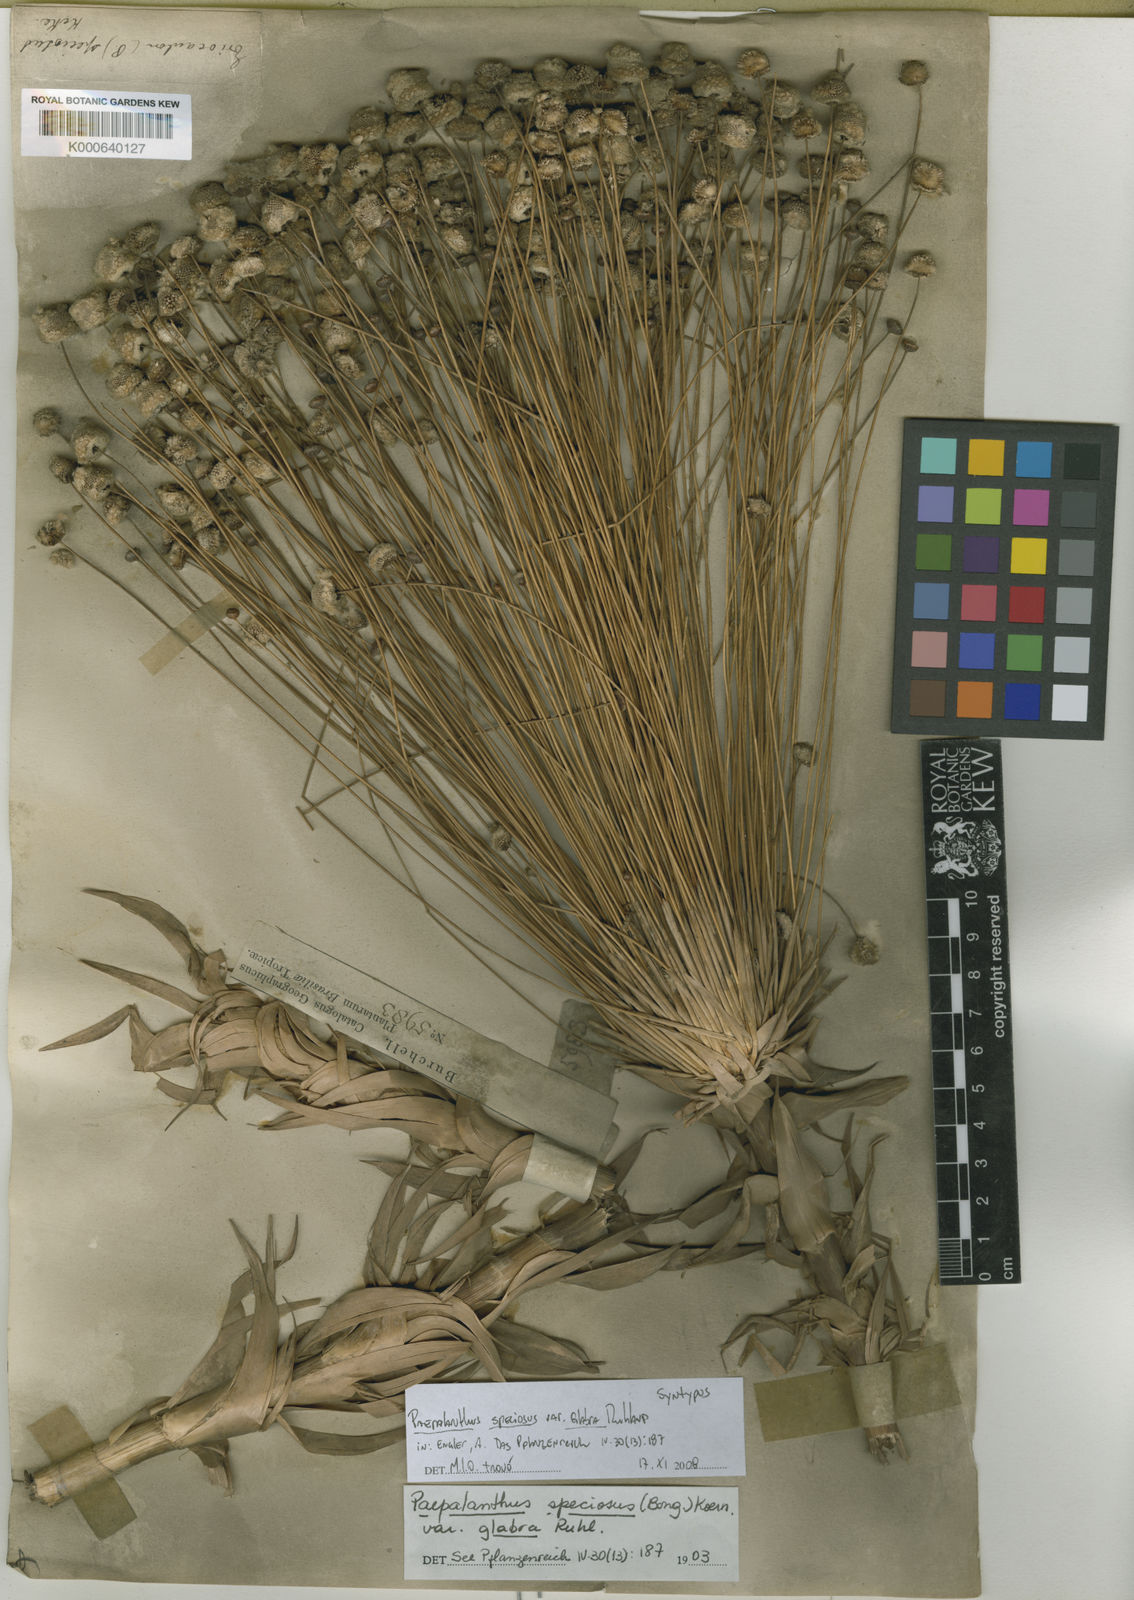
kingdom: Plantae
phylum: Tracheophyta
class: Liliopsida
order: Poales
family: Eriocaulaceae
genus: Paepalanthus
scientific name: Paepalanthus chiquitensis
